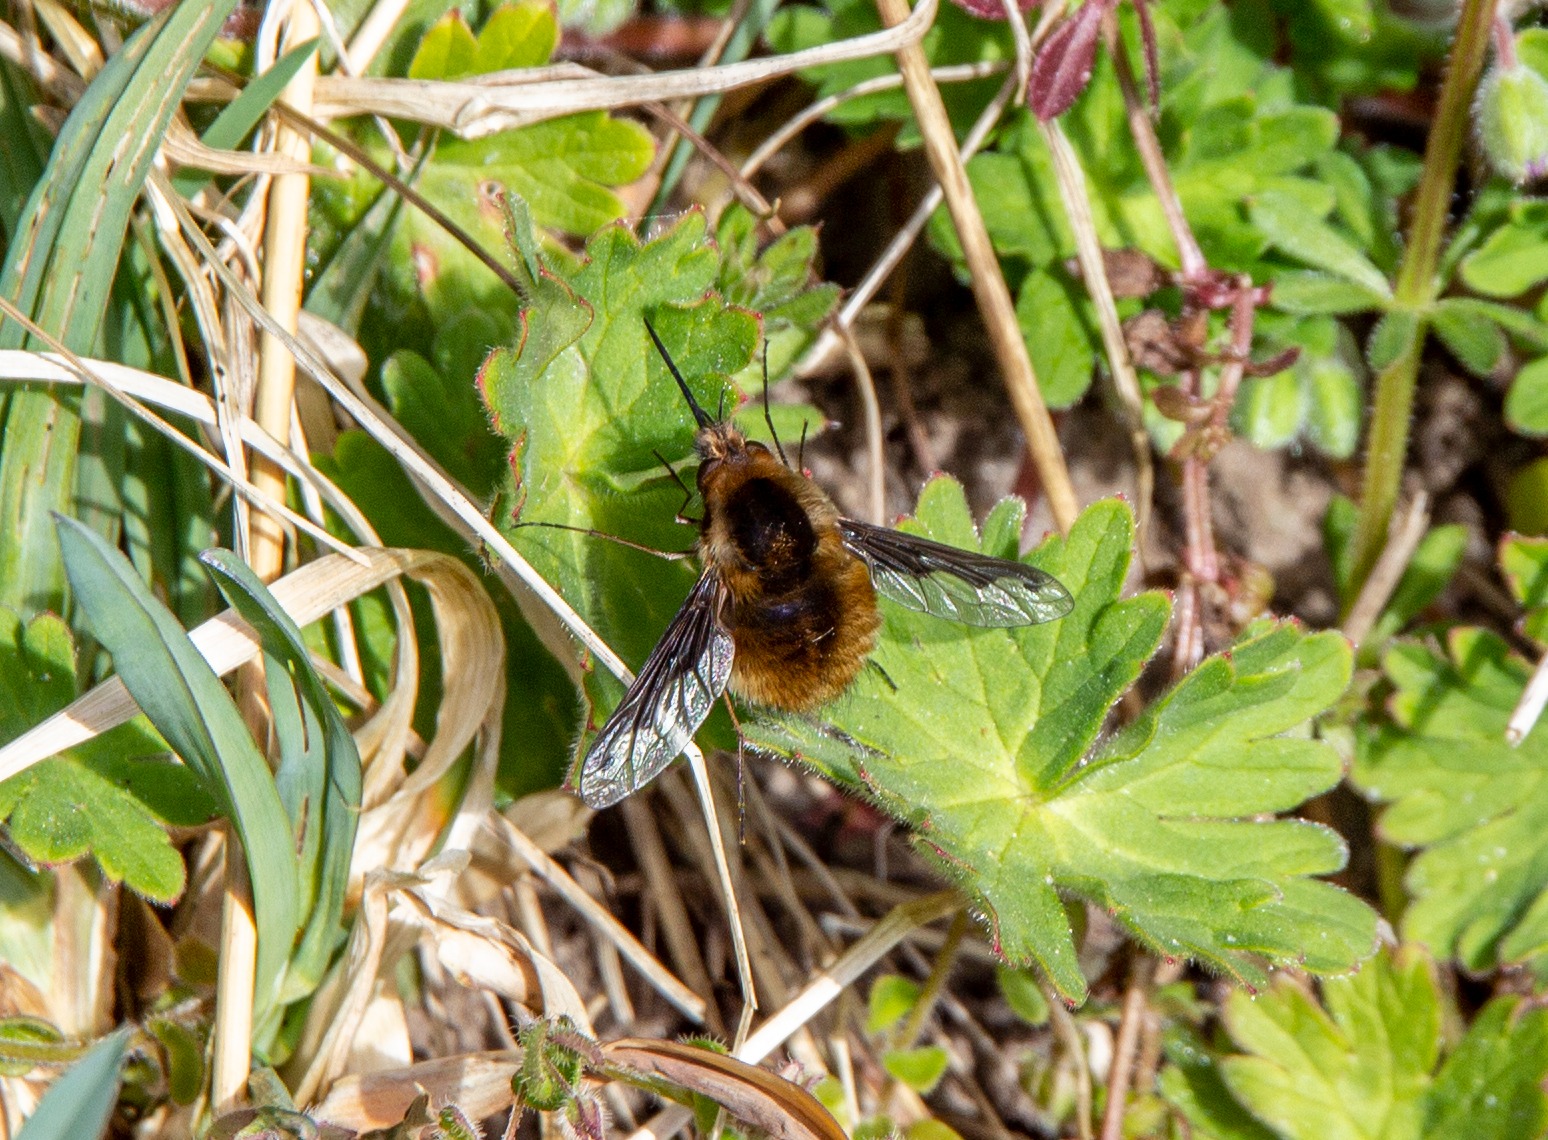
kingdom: Animalia
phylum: Arthropoda
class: Insecta
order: Diptera
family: Bombyliidae
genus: Bombylius
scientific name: Bombylius major
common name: Stor humleflue
